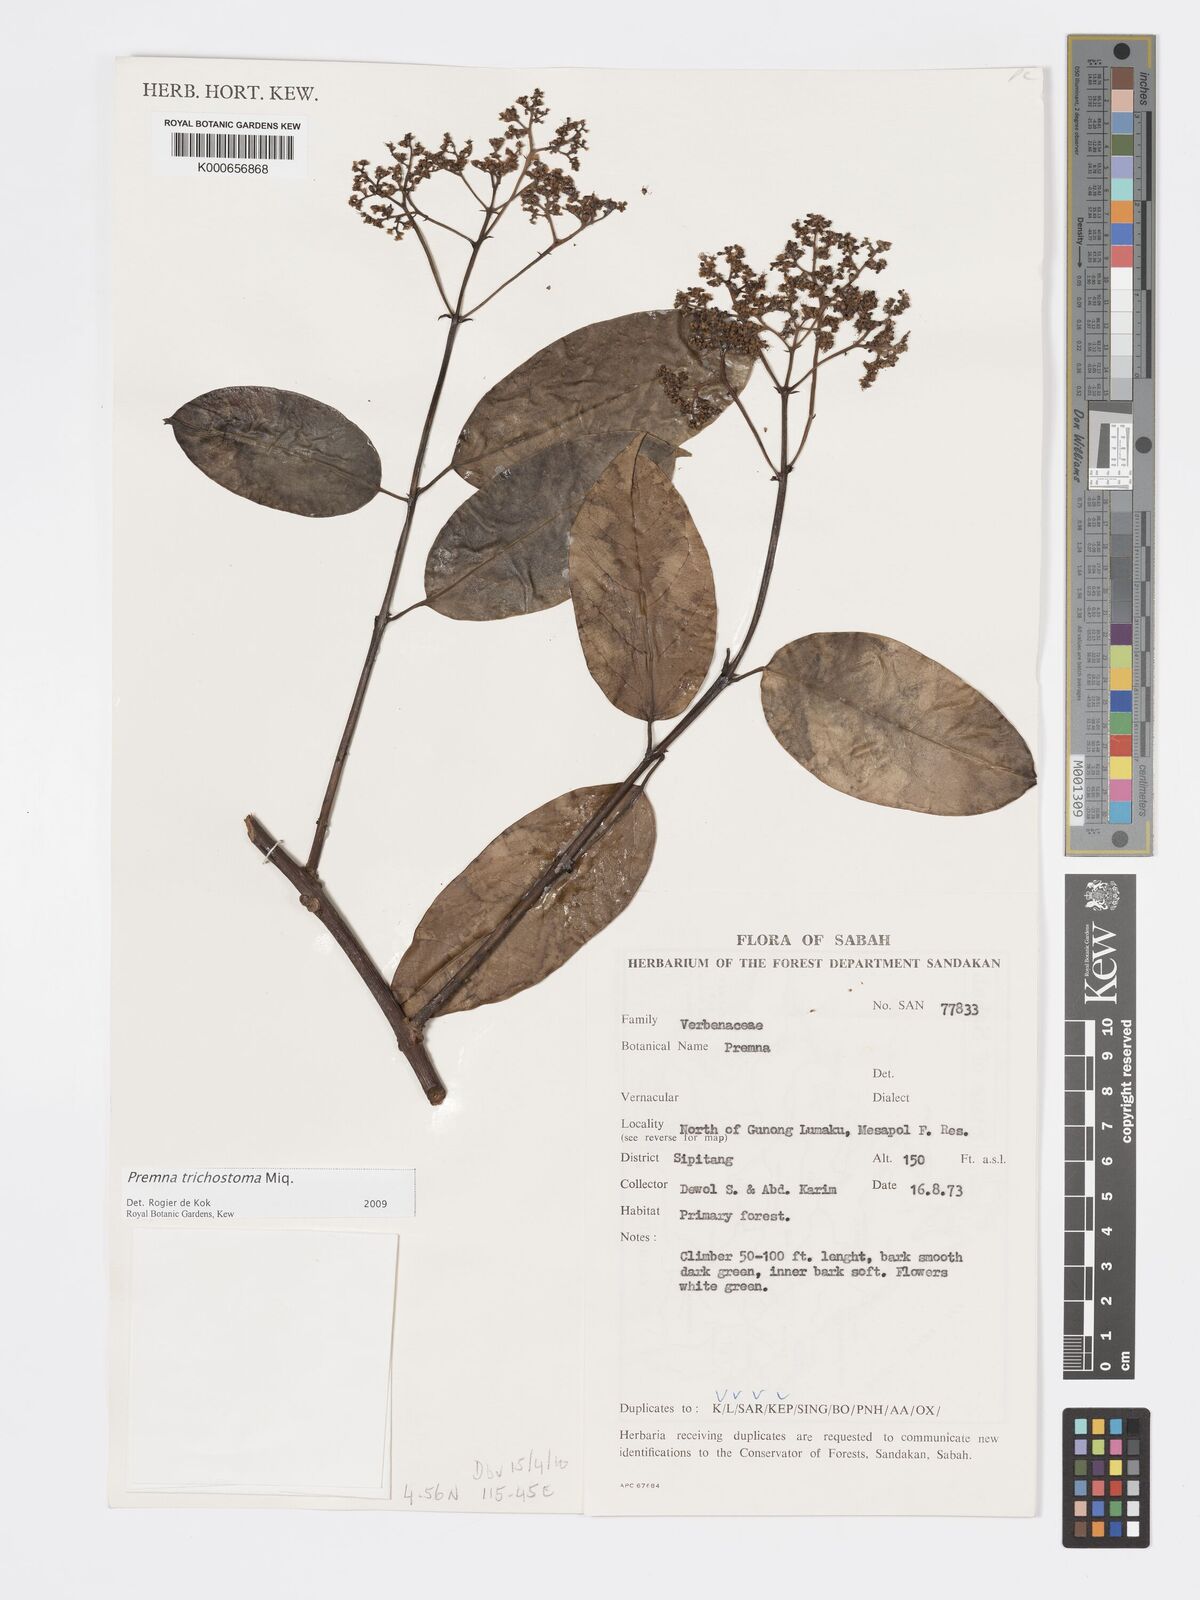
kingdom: Plantae
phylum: Tracheophyta
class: Magnoliopsida
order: Lamiales
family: Lamiaceae
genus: Premna
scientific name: Premna trichostoma
